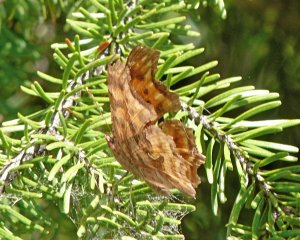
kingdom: Animalia
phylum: Arthropoda
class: Insecta
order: Lepidoptera
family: Nymphalidae
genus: Polygonia
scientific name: Polygonia satyrus
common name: Satyr Comma
